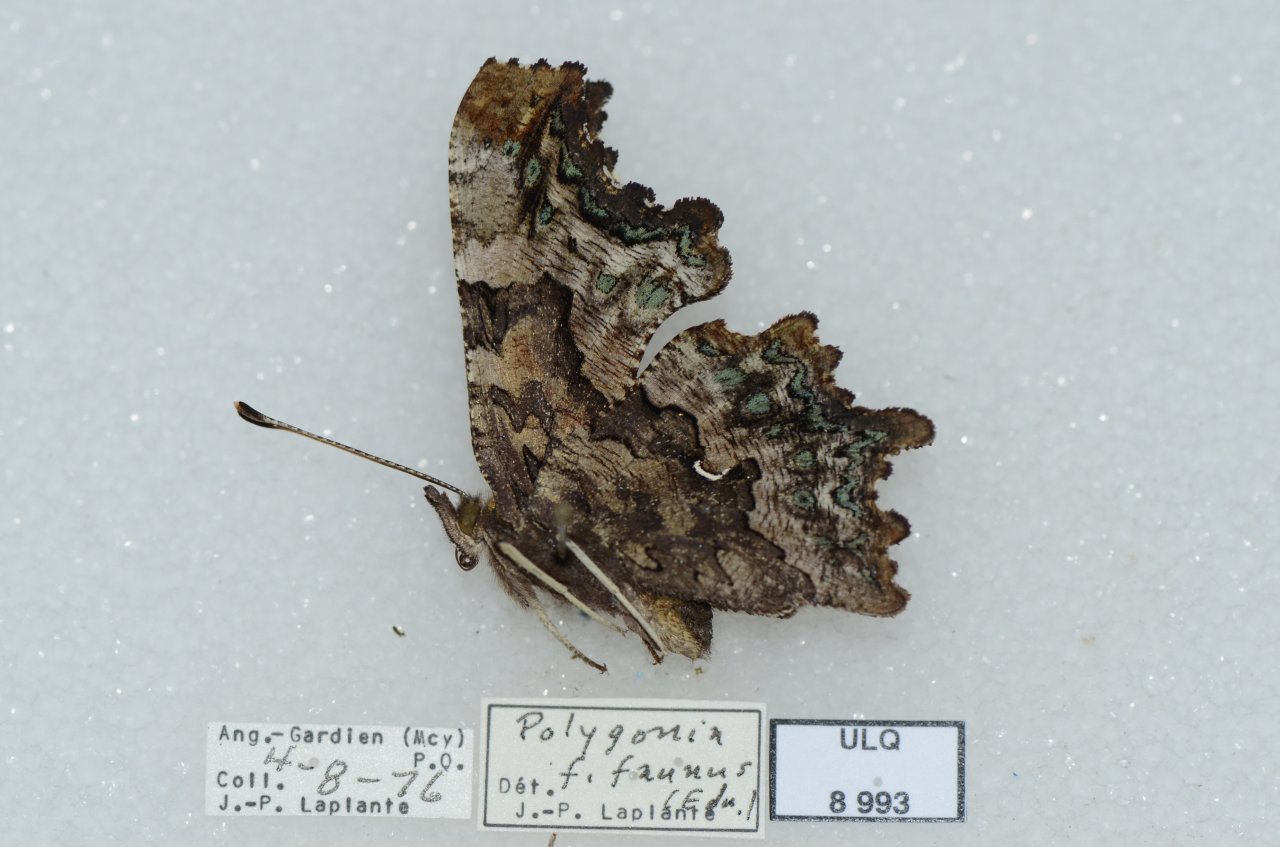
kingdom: Animalia
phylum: Arthropoda
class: Insecta
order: Lepidoptera
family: Nymphalidae
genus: Polygonia
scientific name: Polygonia faunus
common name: Green Comma
